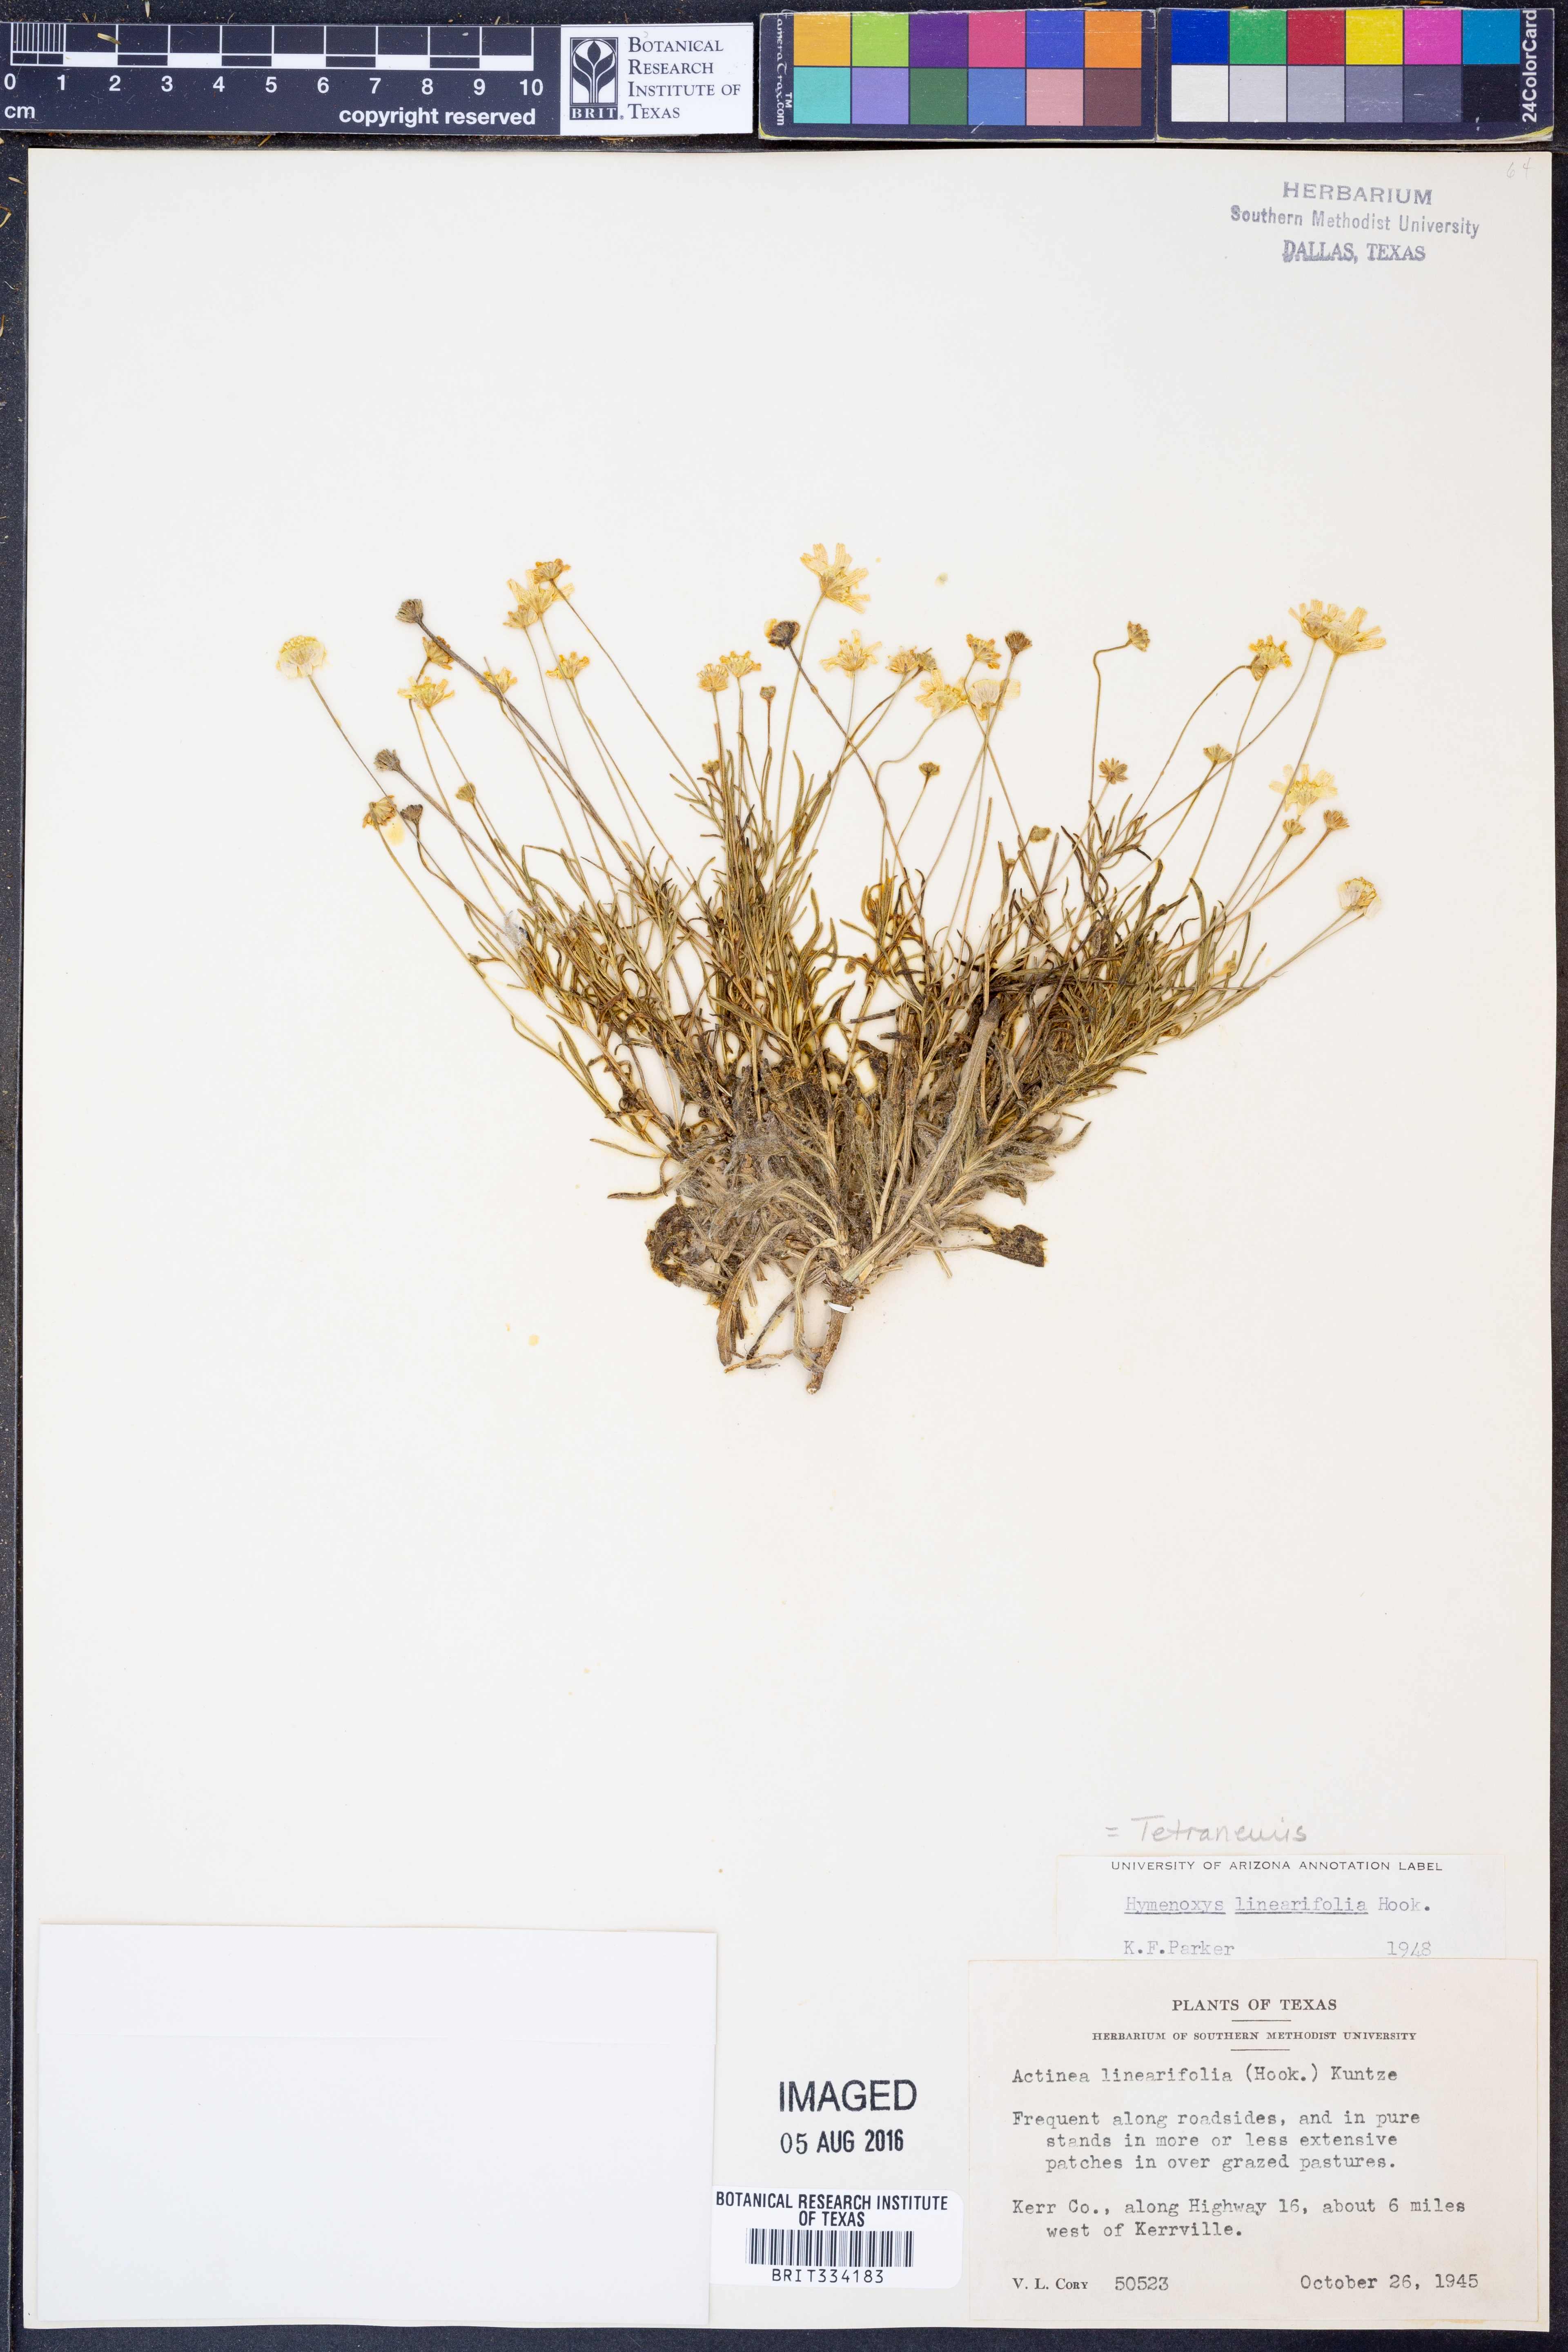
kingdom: Plantae
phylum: Tracheophyta
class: Magnoliopsida
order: Asterales
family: Asteraceae
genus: Tetraneuris
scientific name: Tetraneuris linearifolia
